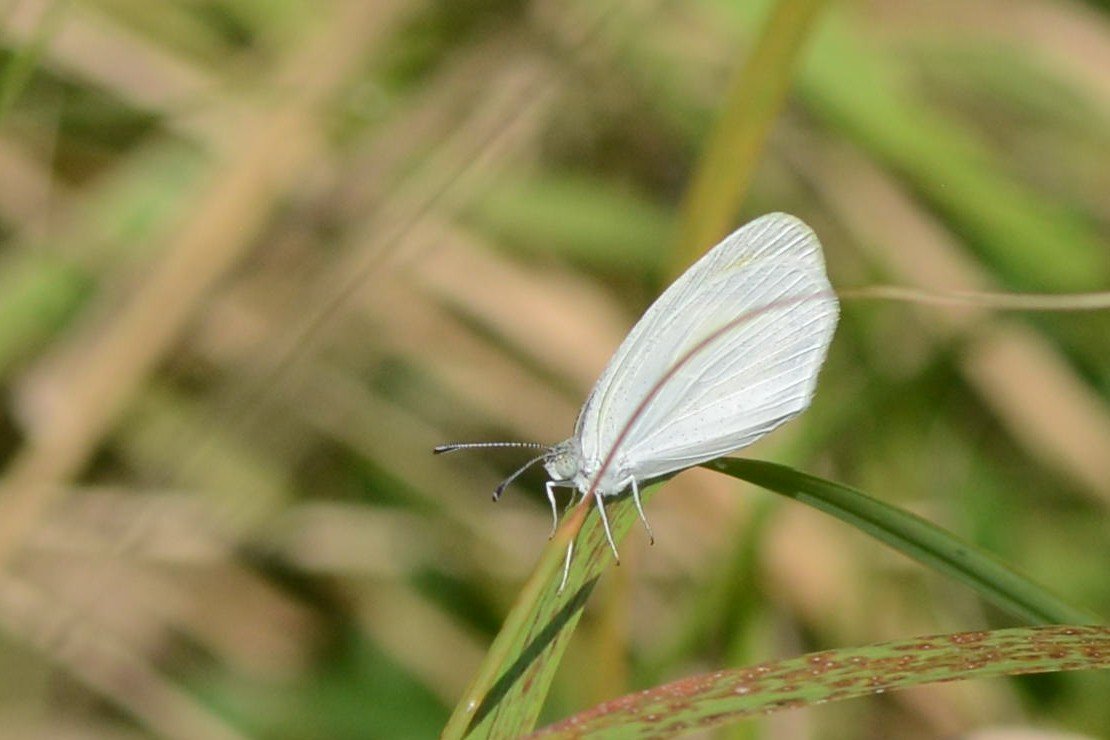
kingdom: Animalia
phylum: Arthropoda
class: Insecta
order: Lepidoptera
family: Pieridae
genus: Eurema
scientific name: Eurema daira
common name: Barred Yellow
